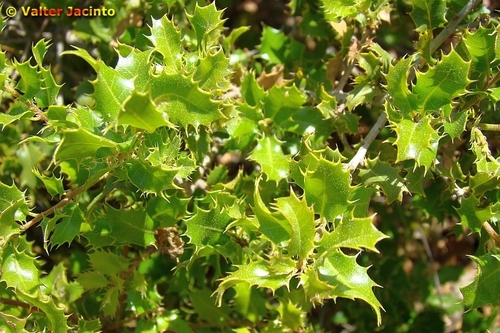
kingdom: Plantae
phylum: Tracheophyta
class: Magnoliopsida
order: Fagales
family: Fagaceae
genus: Quercus
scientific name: Quercus coccifera
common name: Kermes oak
